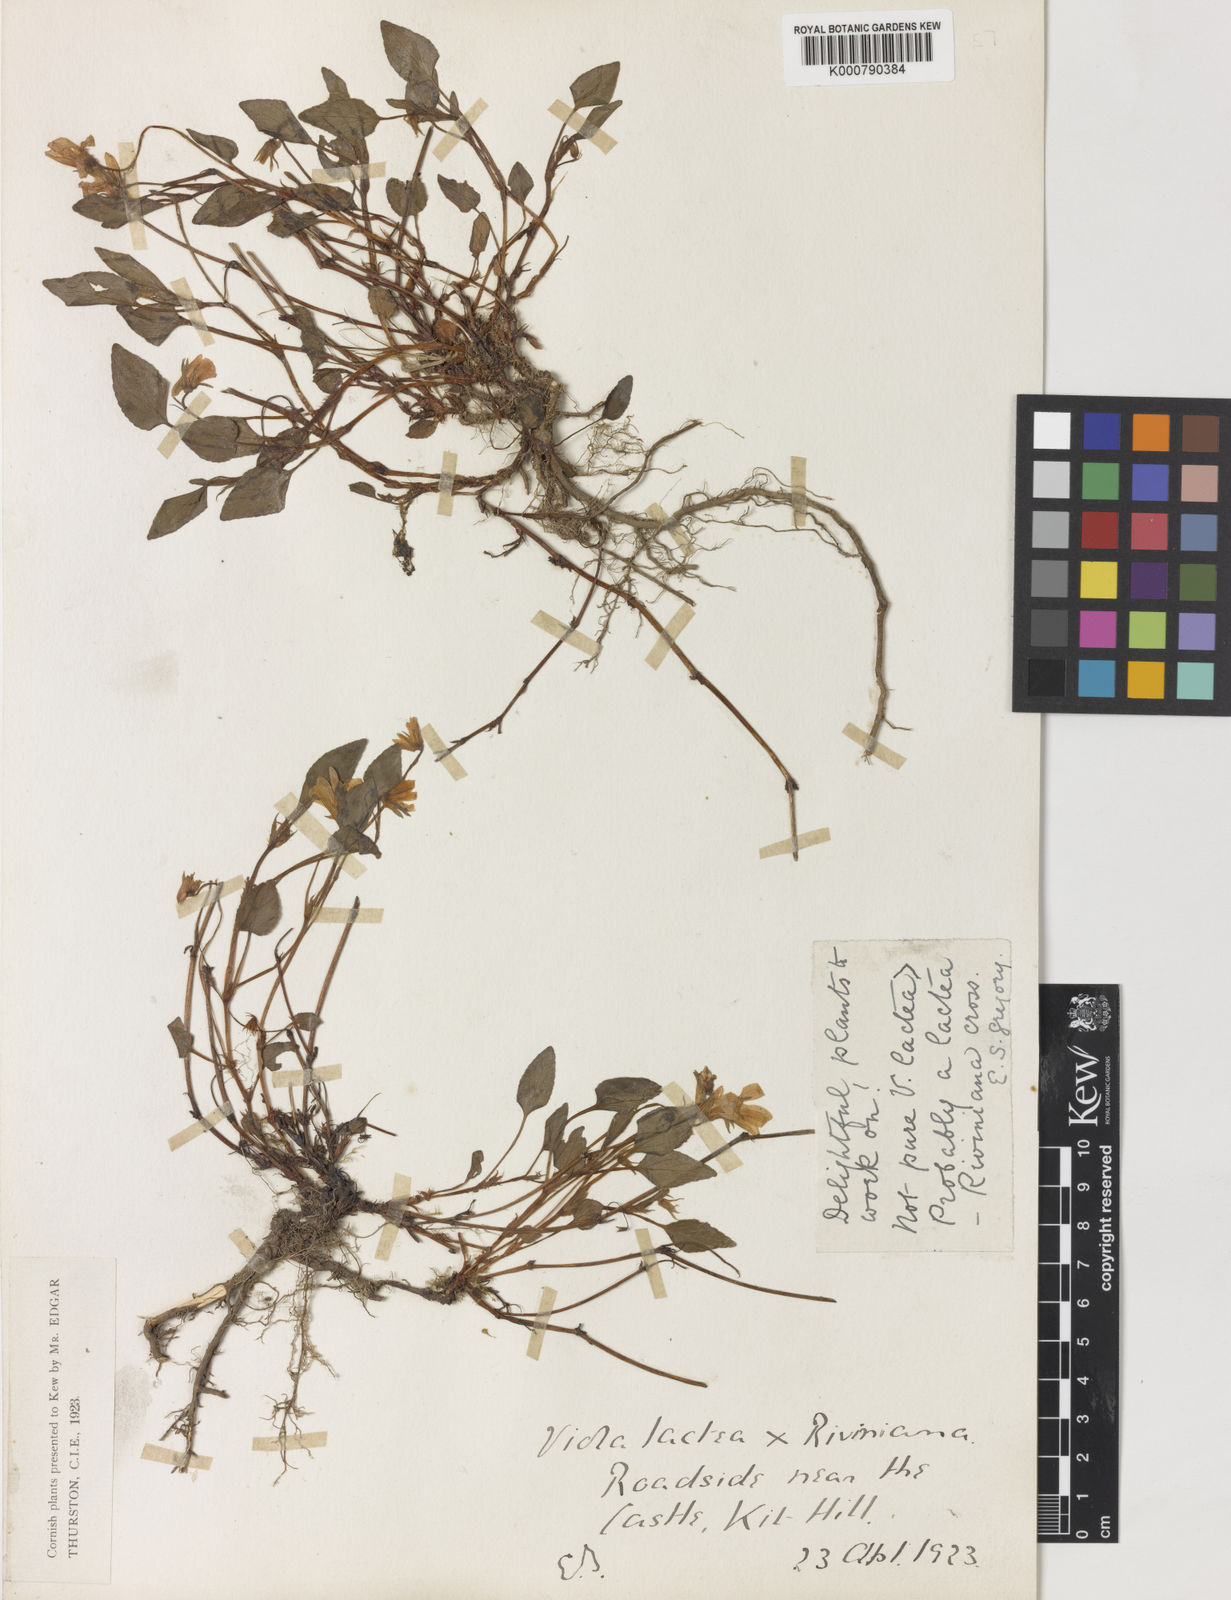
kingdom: Plantae
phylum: Tracheophyta
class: Magnoliopsida
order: Malpighiales
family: Violaceae
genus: Viola
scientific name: Viola lactea
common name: Pale dog-violet
